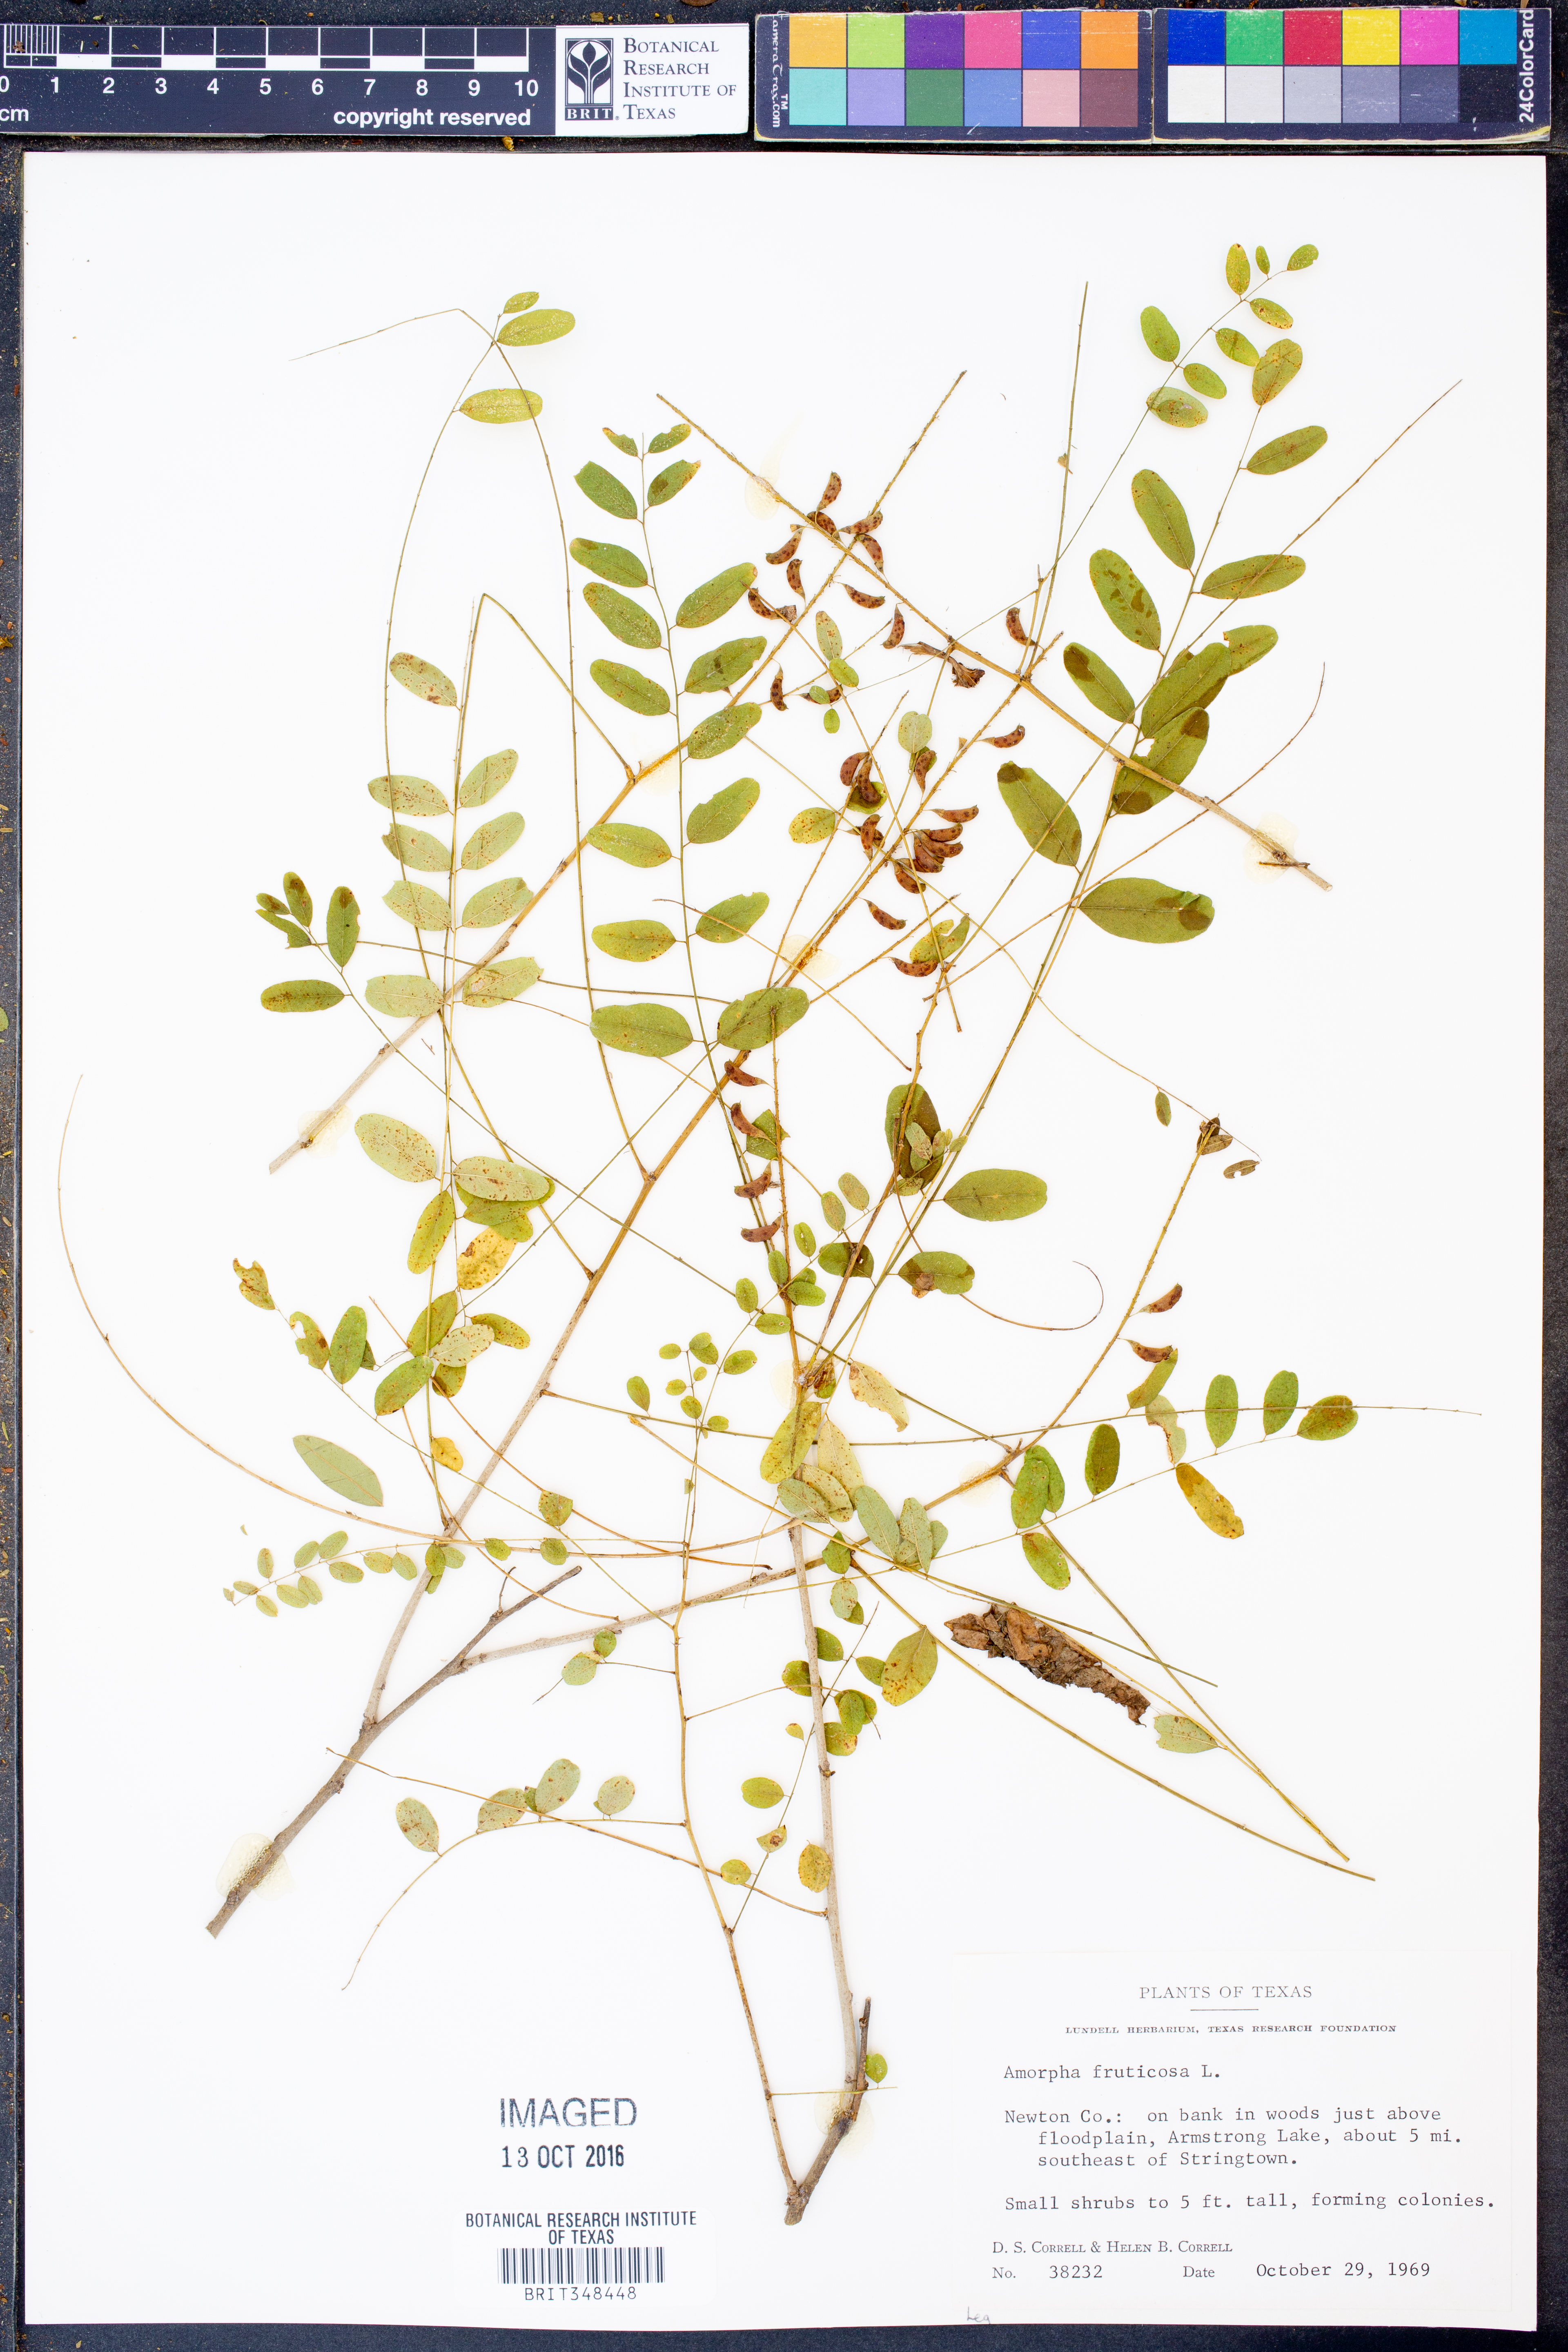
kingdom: Plantae
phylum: Tracheophyta
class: Magnoliopsida
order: Fabales
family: Fabaceae
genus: Amorpha
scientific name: Amorpha fruticosa
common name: False indigo
